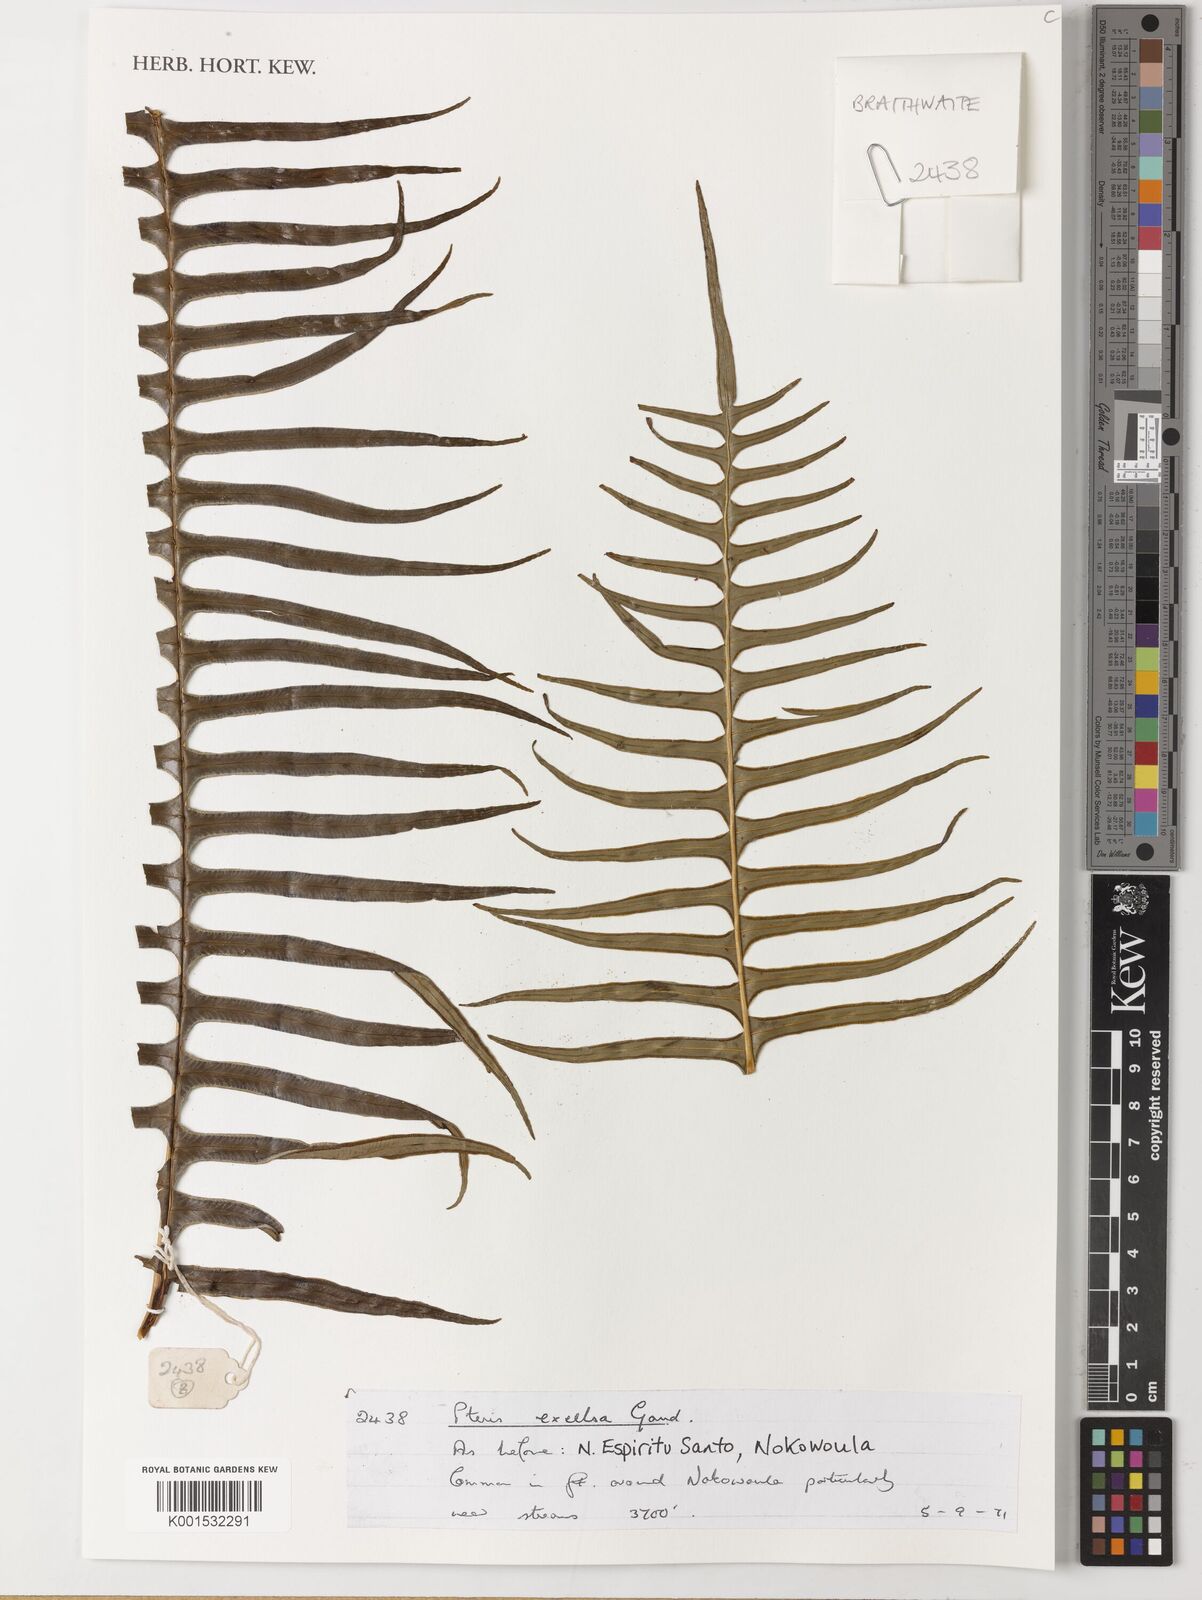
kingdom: Plantae
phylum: Tracheophyta
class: Polypodiopsida
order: Polypodiales
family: Pteridaceae
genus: Pteris
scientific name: Pteris terminalis
